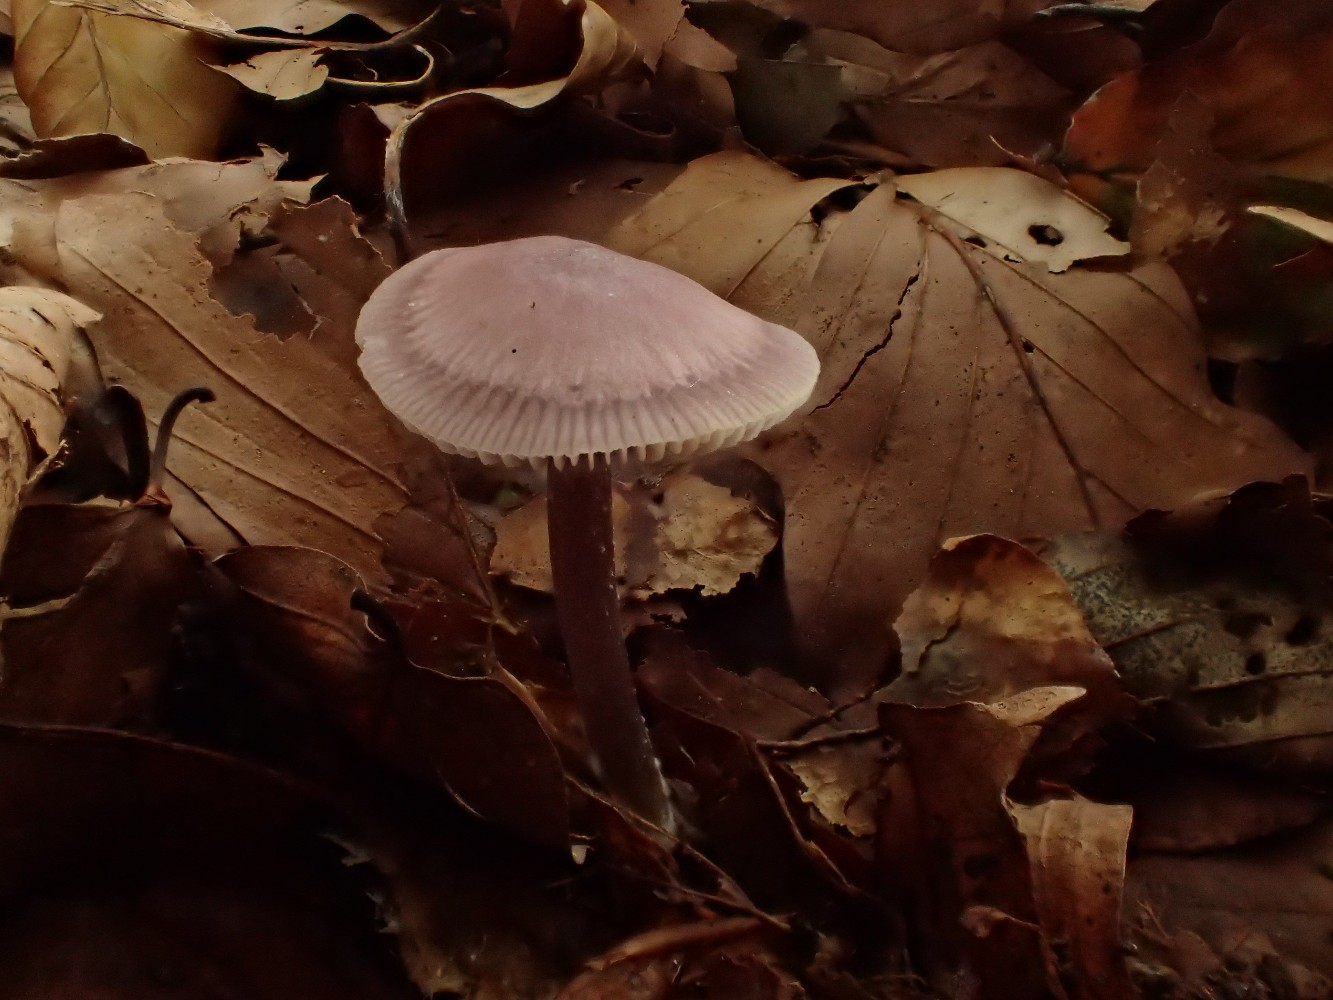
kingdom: Fungi
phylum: Basidiomycota
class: Agaricomycetes
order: Agaricales
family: Mycenaceae
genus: Prunulus
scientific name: Prunulus diosmus
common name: tobaks-huesvamp
